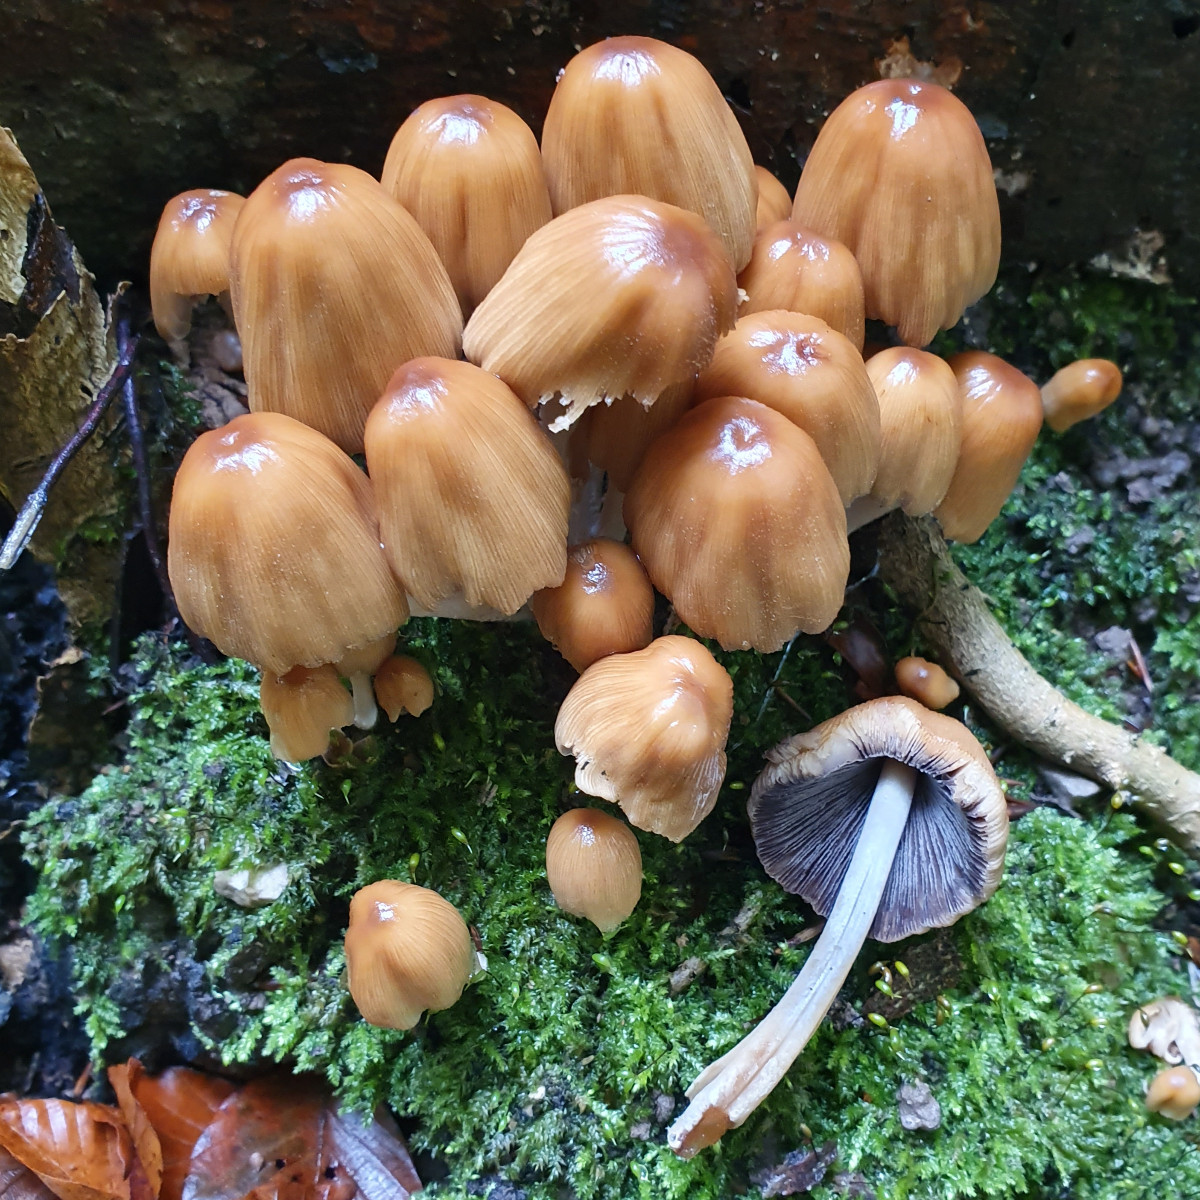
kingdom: Fungi
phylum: Basidiomycota
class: Agaricomycetes
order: Agaricales
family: Psathyrellaceae
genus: Coprinellus
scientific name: Coprinellus micaceus
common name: glimmer-blækhat
